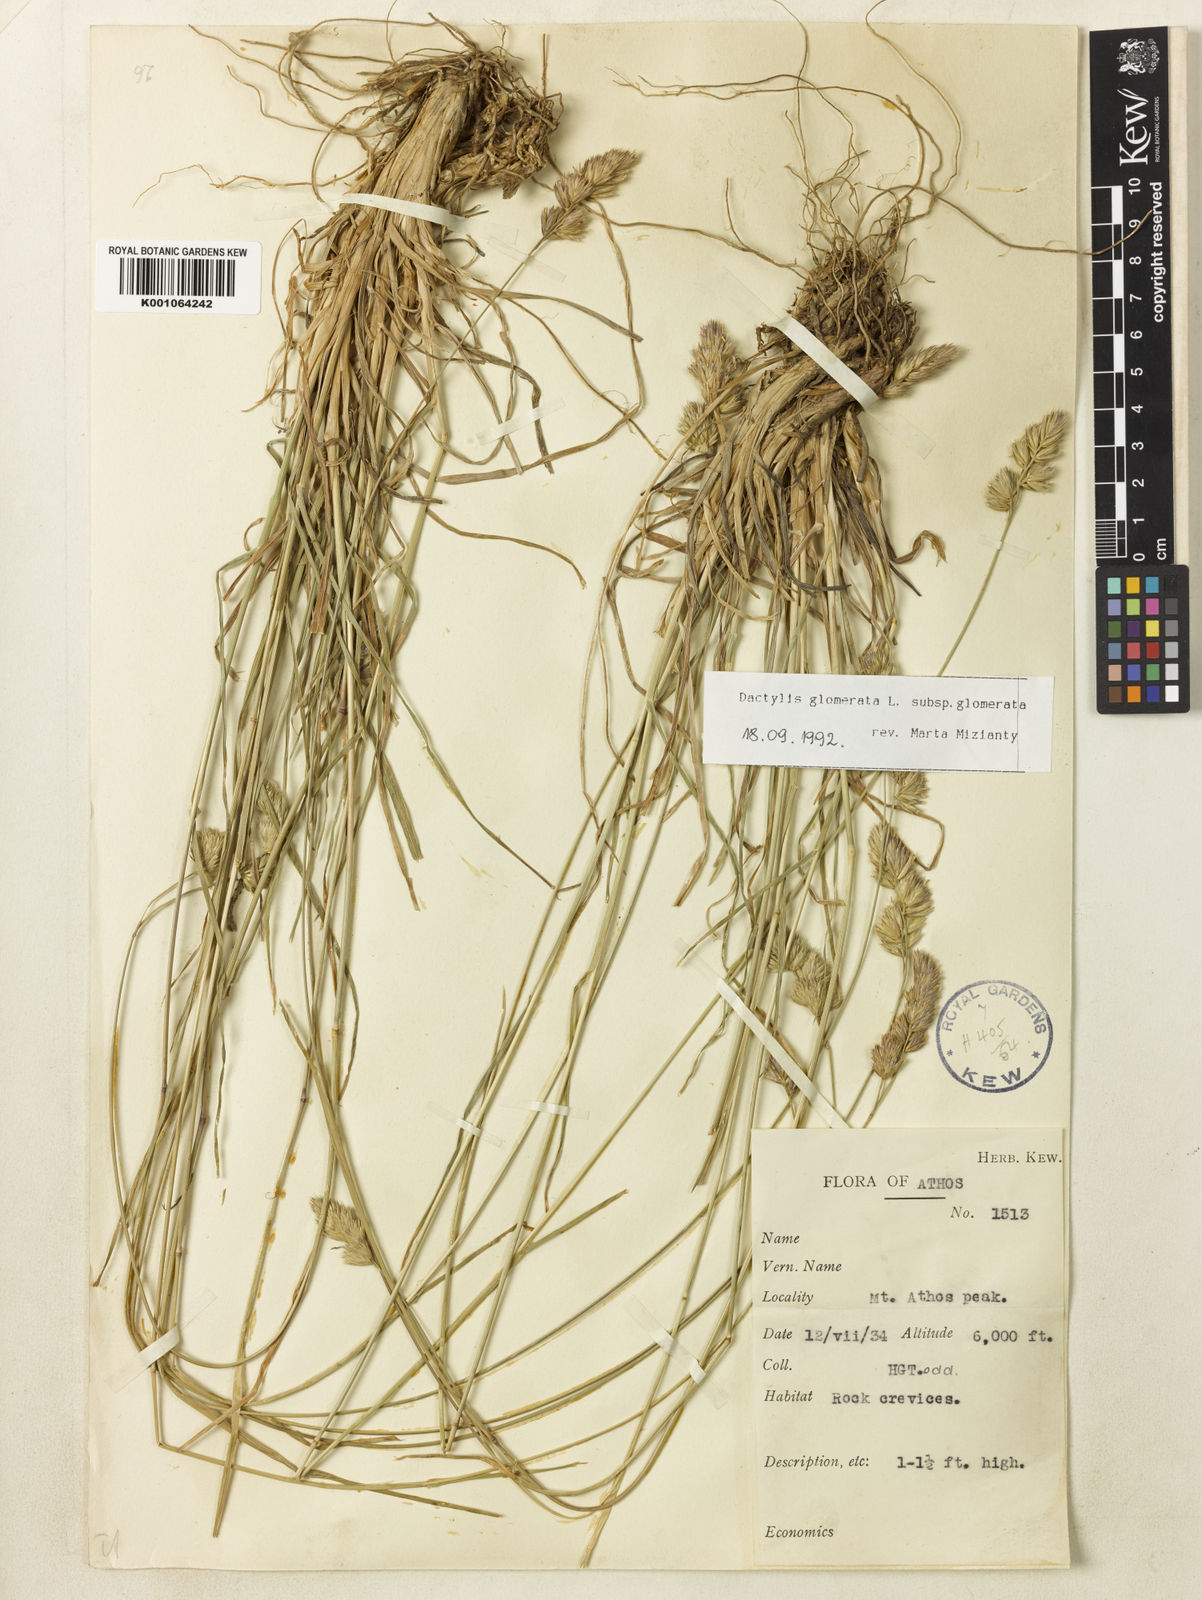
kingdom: Plantae
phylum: Tracheophyta
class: Liliopsida
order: Poales
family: Poaceae
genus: Dactylis
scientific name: Dactylis glomerata
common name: Orchardgrass
